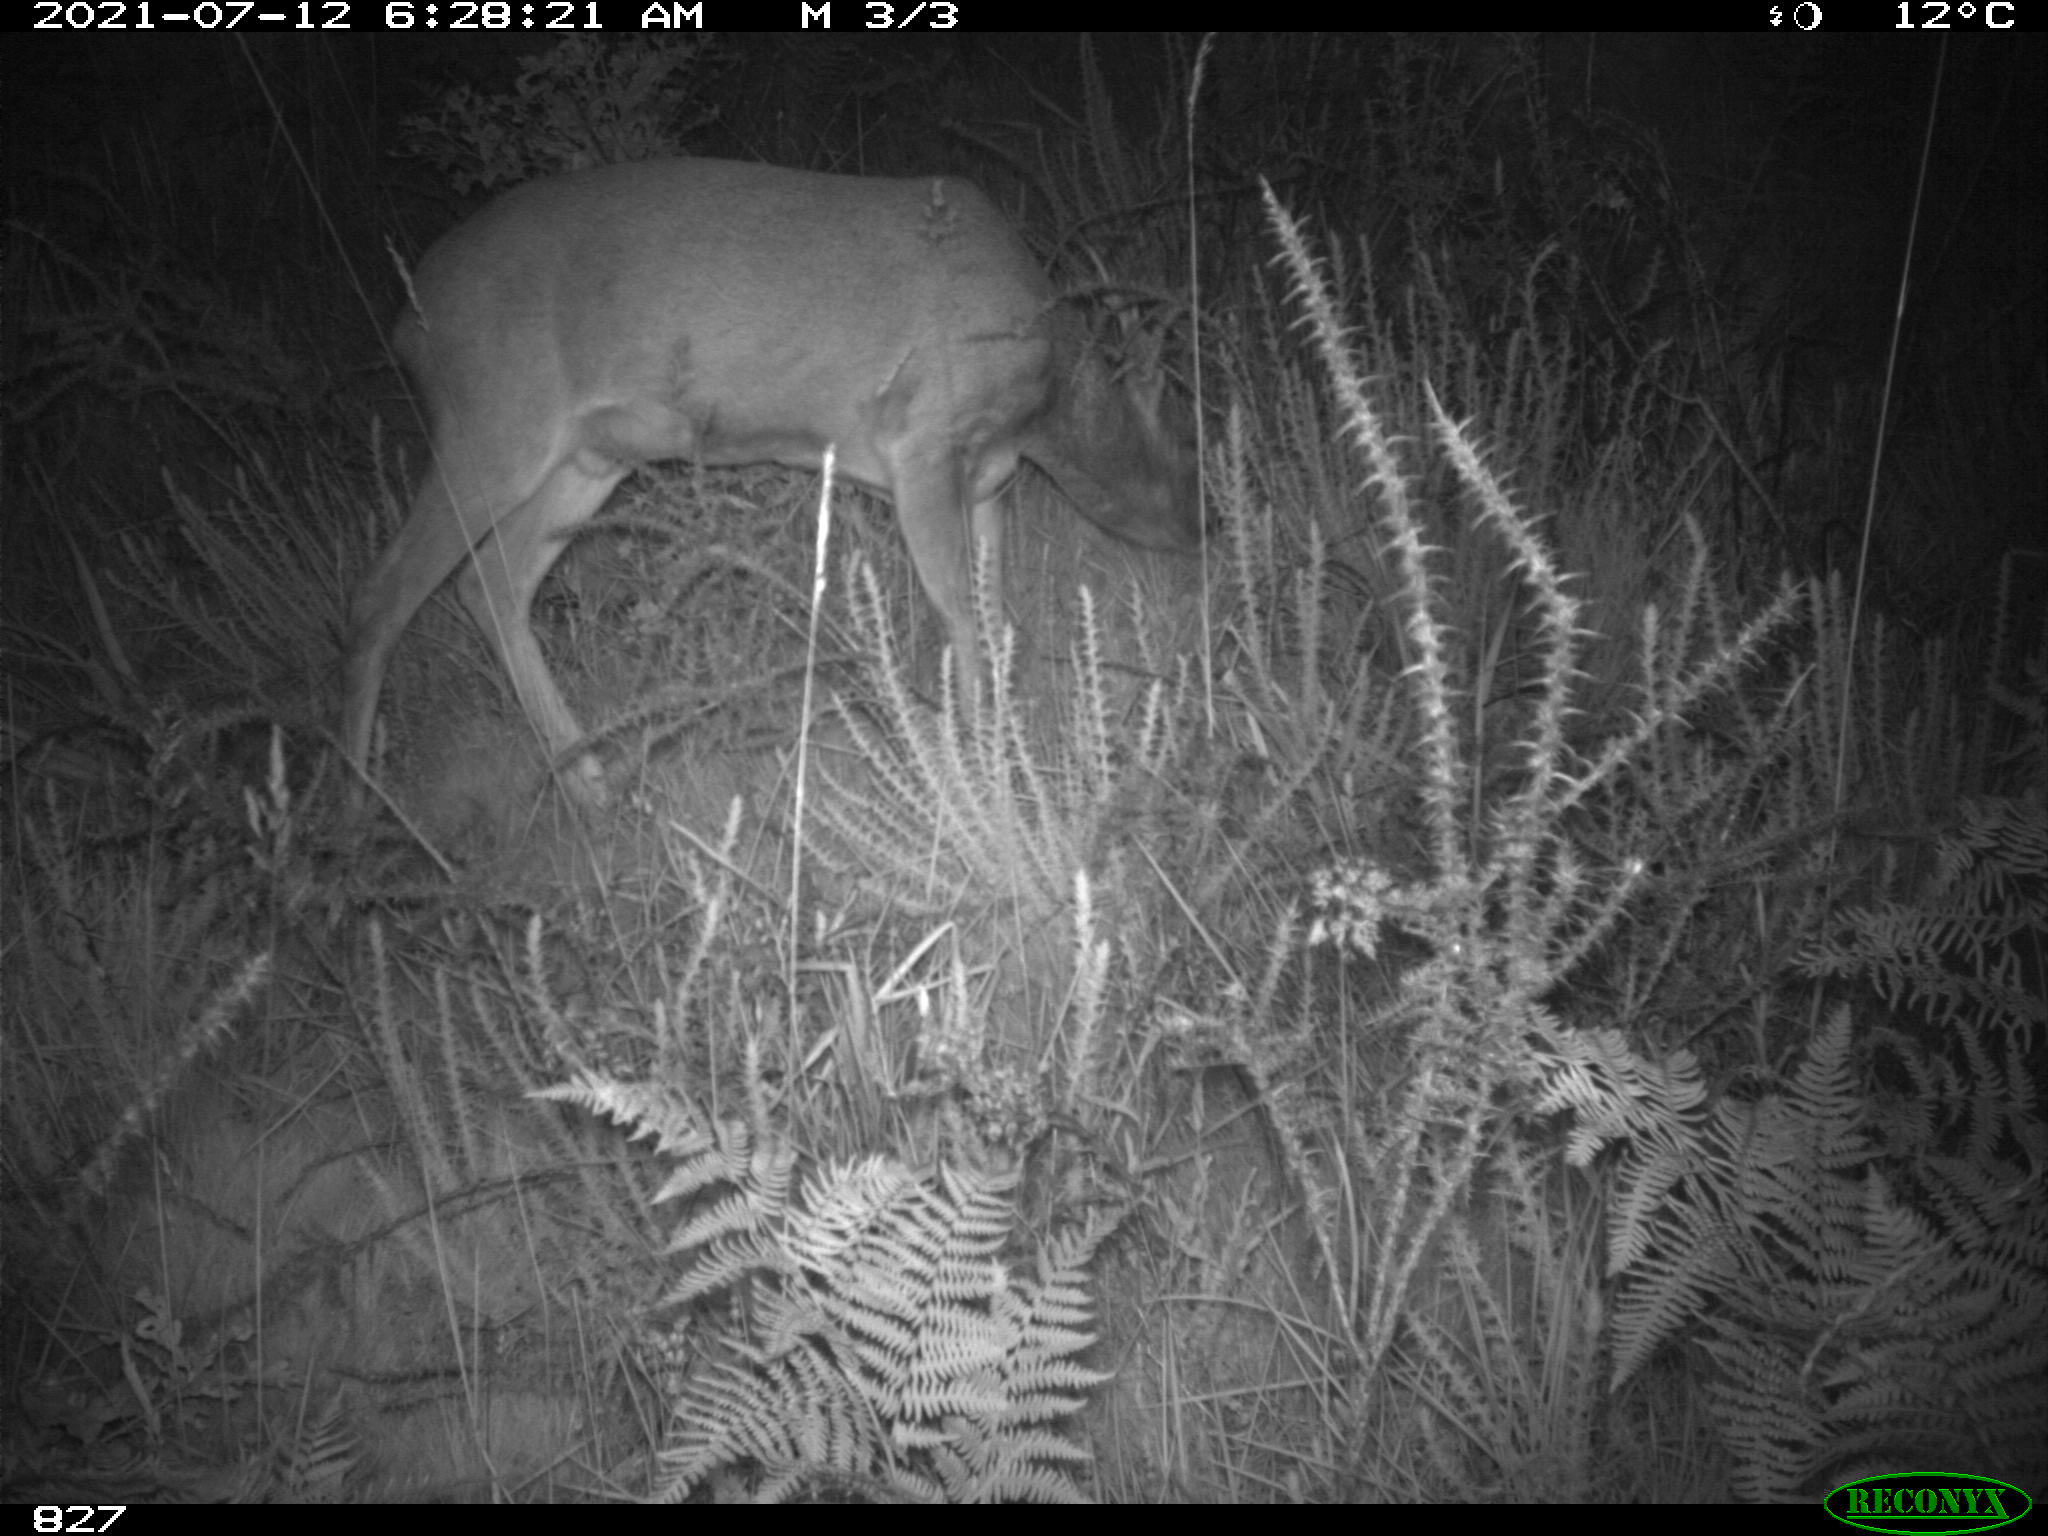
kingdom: Animalia
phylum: Chordata
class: Mammalia
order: Artiodactyla
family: Cervidae
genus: Capreolus
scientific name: Capreolus capreolus
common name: Western roe deer
